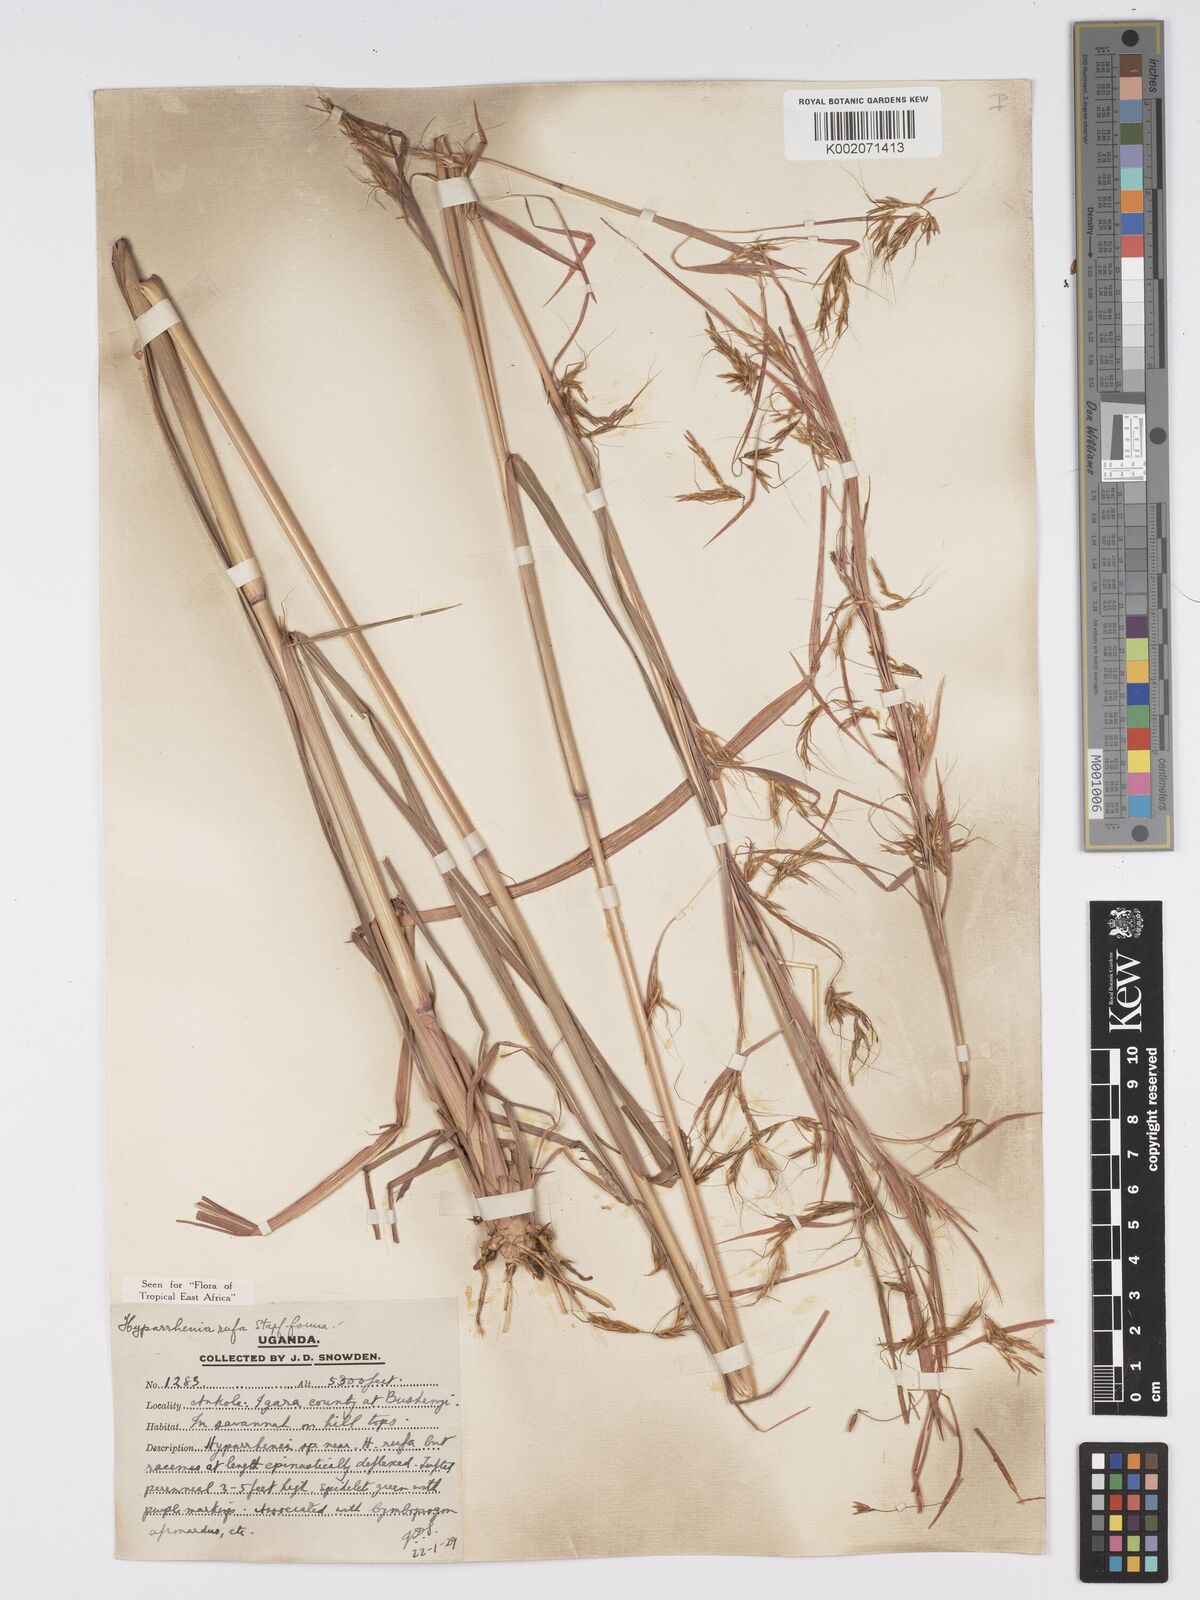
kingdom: Plantae
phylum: Tracheophyta
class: Liliopsida
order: Poales
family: Poaceae
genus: Hyparrhenia
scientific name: Hyparrhenia rufa
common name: Jaraguagrass
